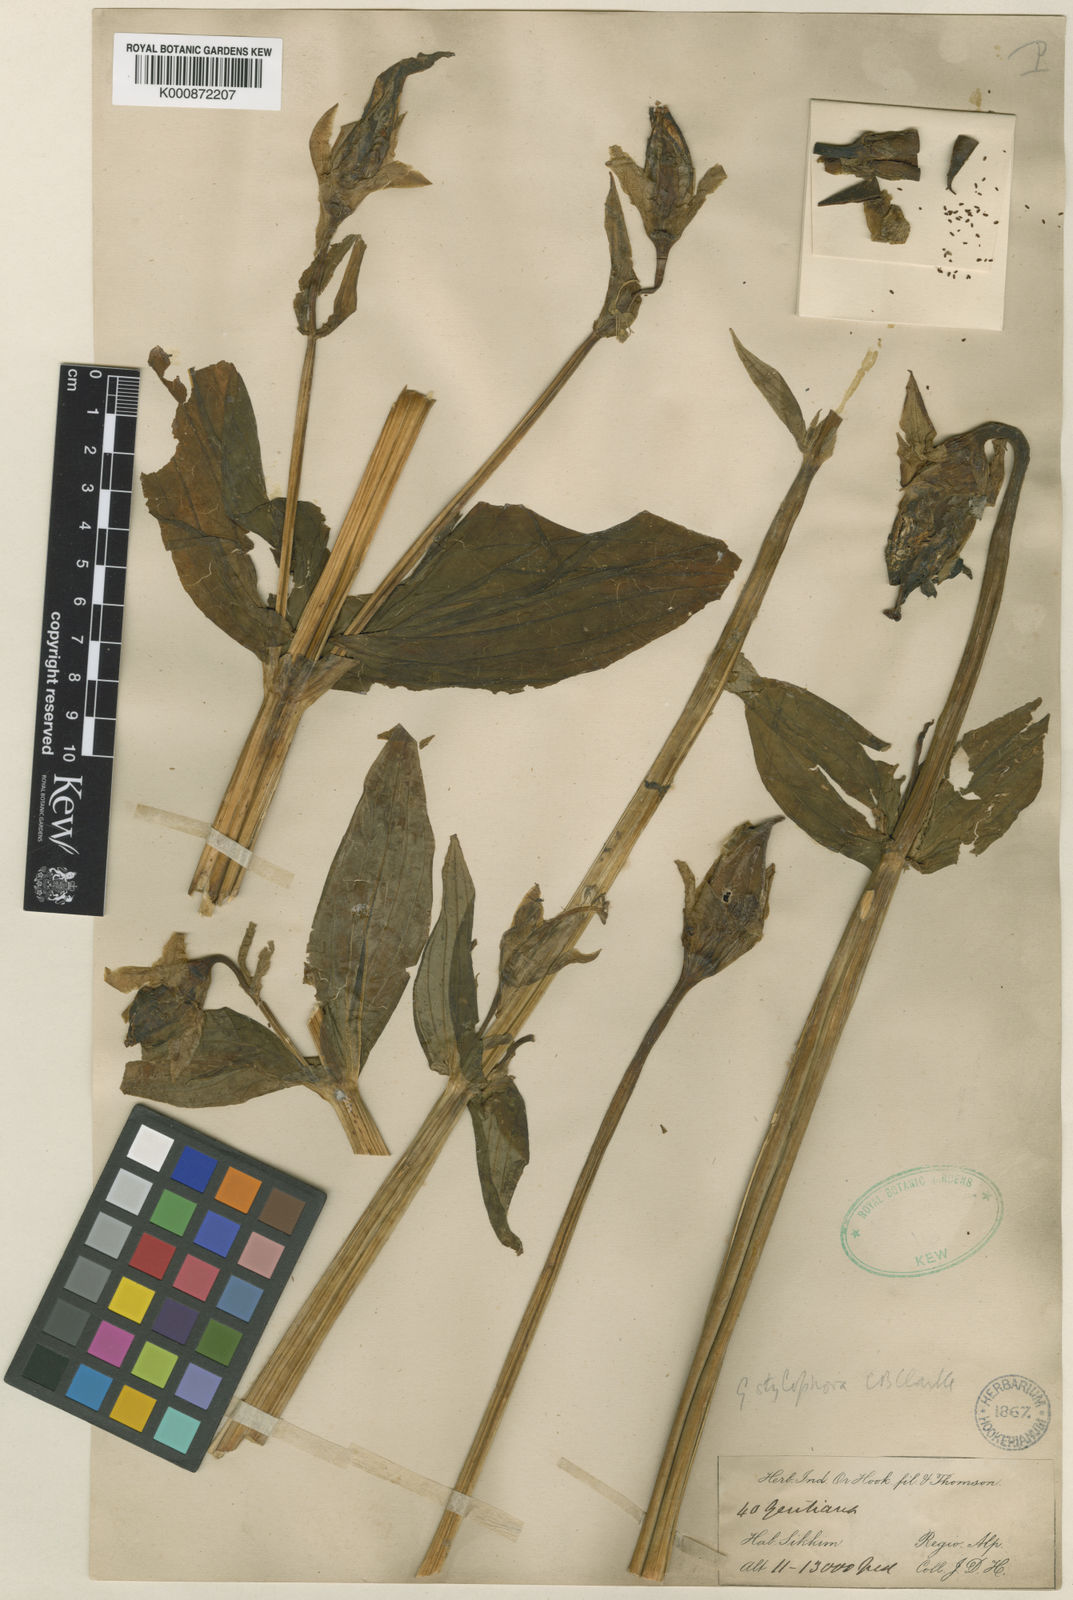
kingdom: Plantae
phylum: Tracheophyta
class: Magnoliopsida
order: Gentianales
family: Gentianaceae
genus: Megacodon
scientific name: Megacodon stylophorus
